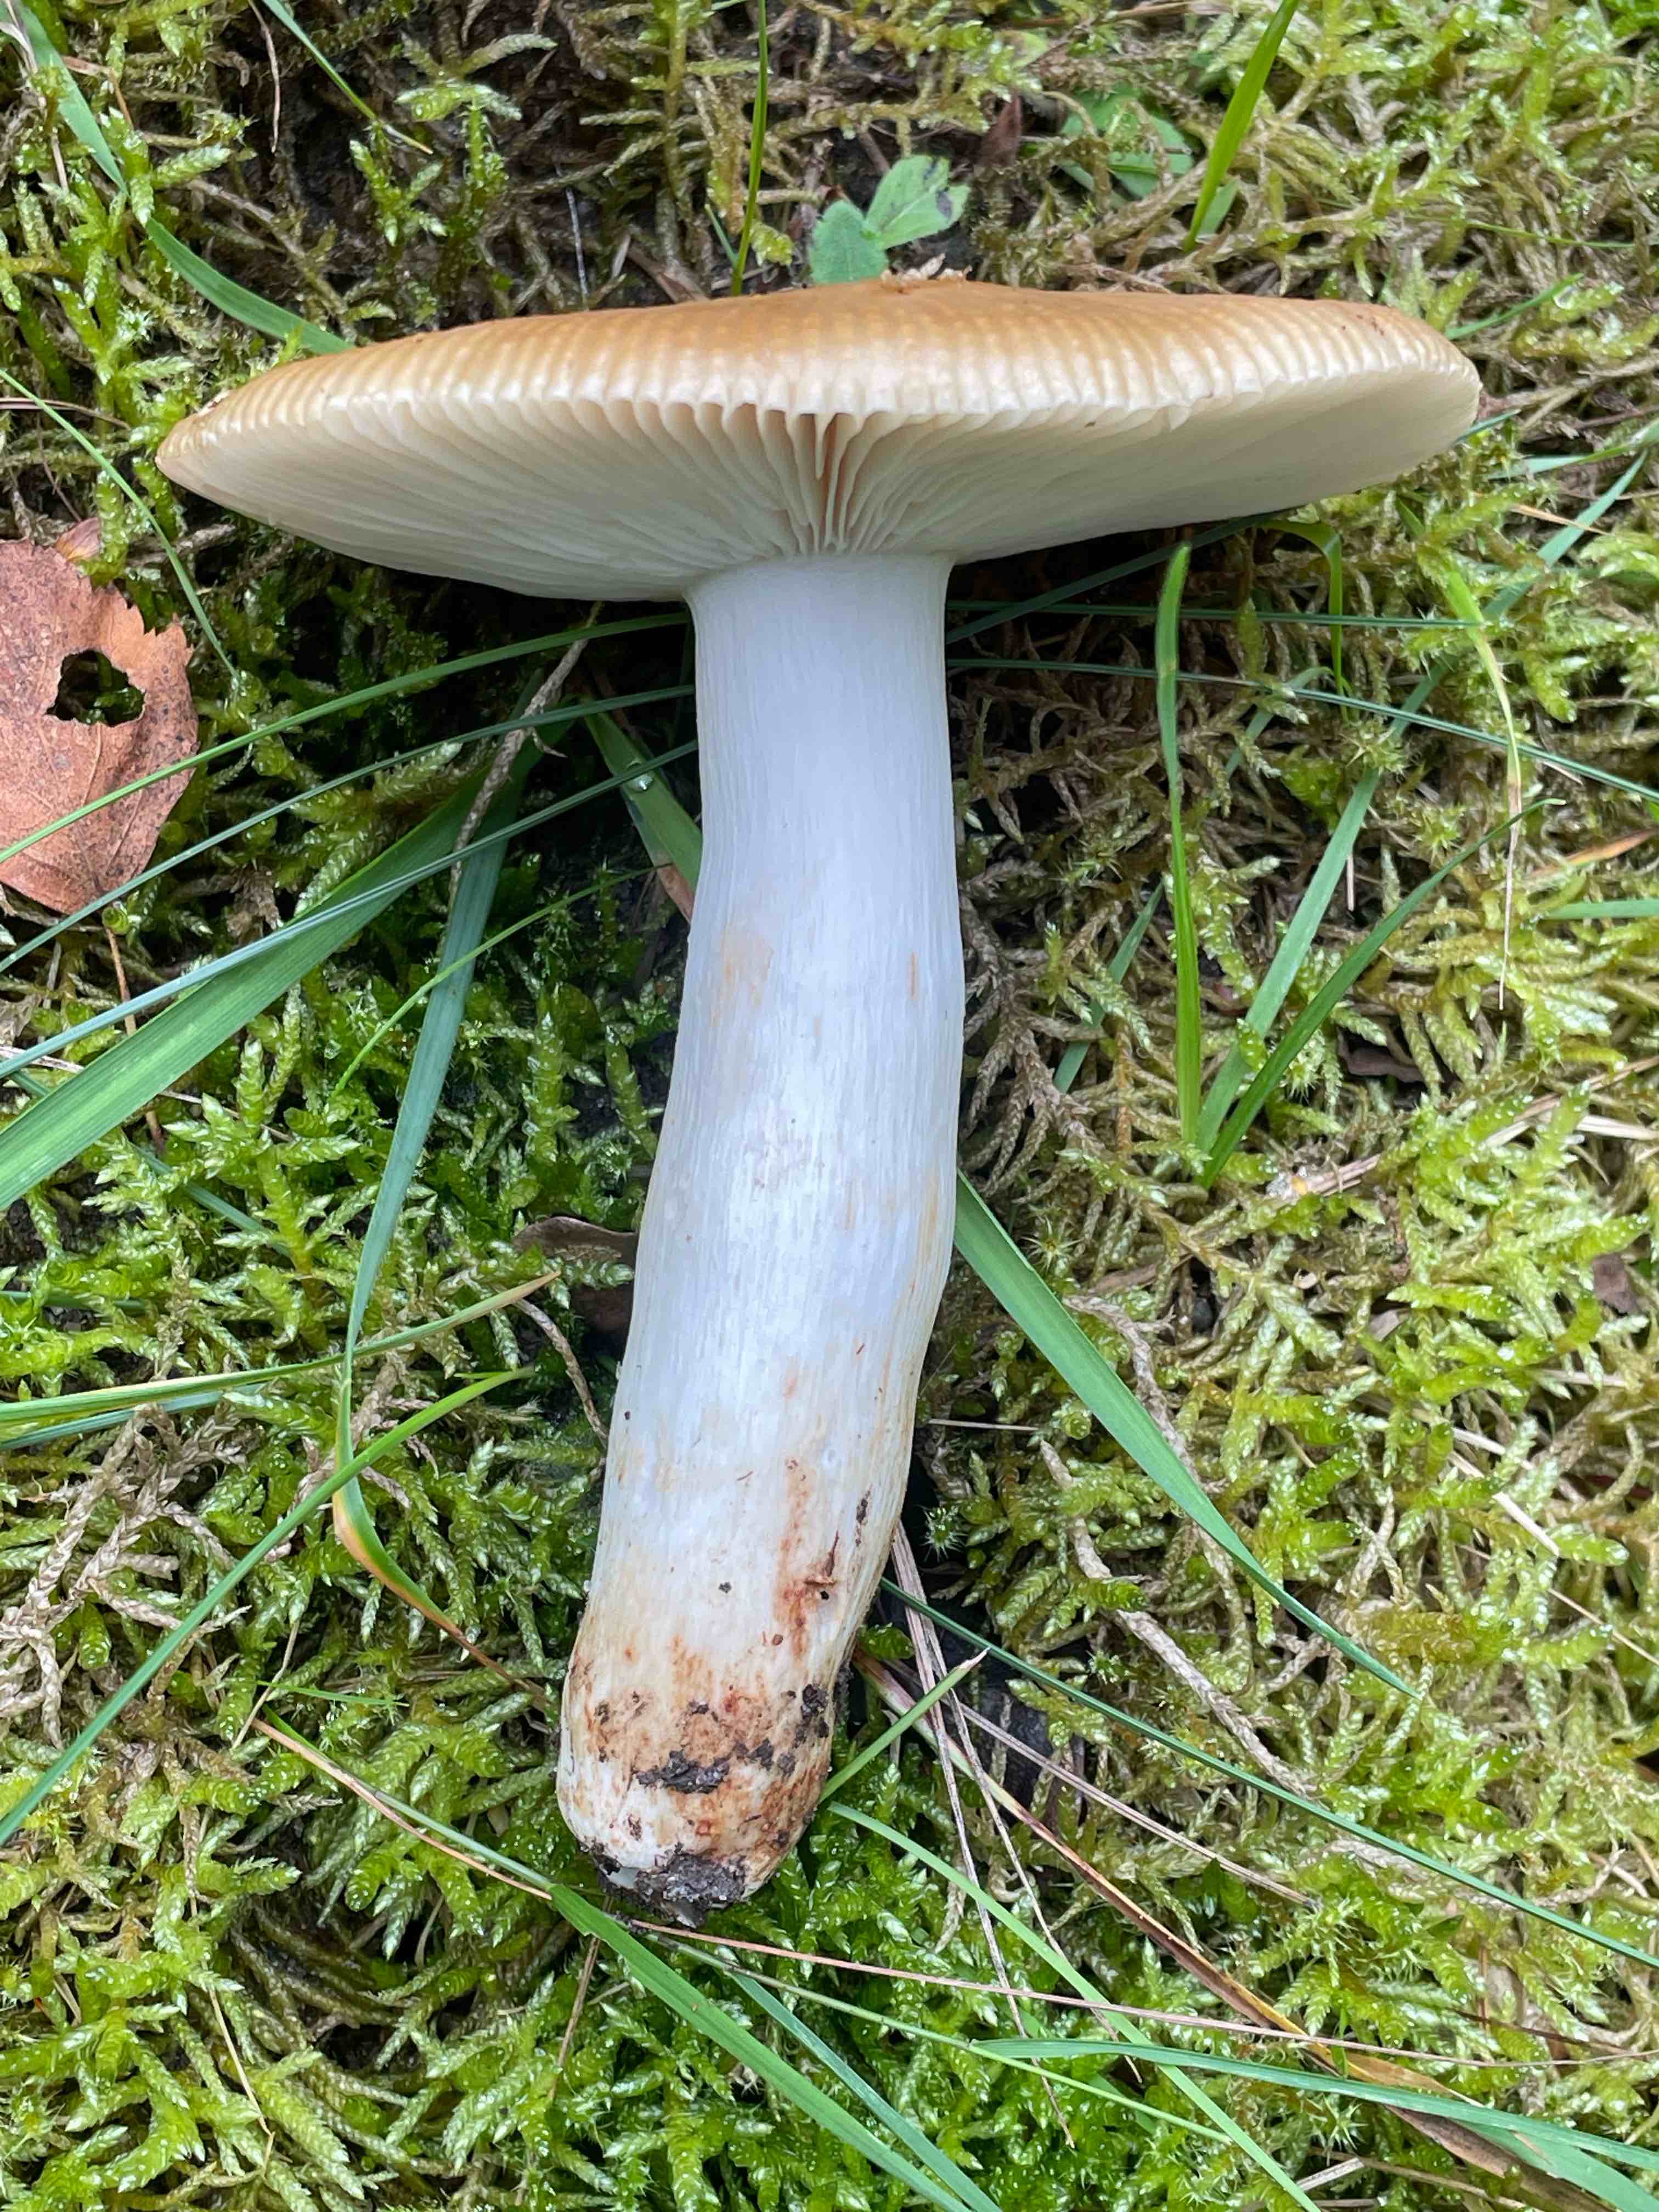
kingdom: Fungi
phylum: Basidiomycota
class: Agaricomycetes
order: Russulales
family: Russulaceae
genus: Russula
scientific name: Russula grata
